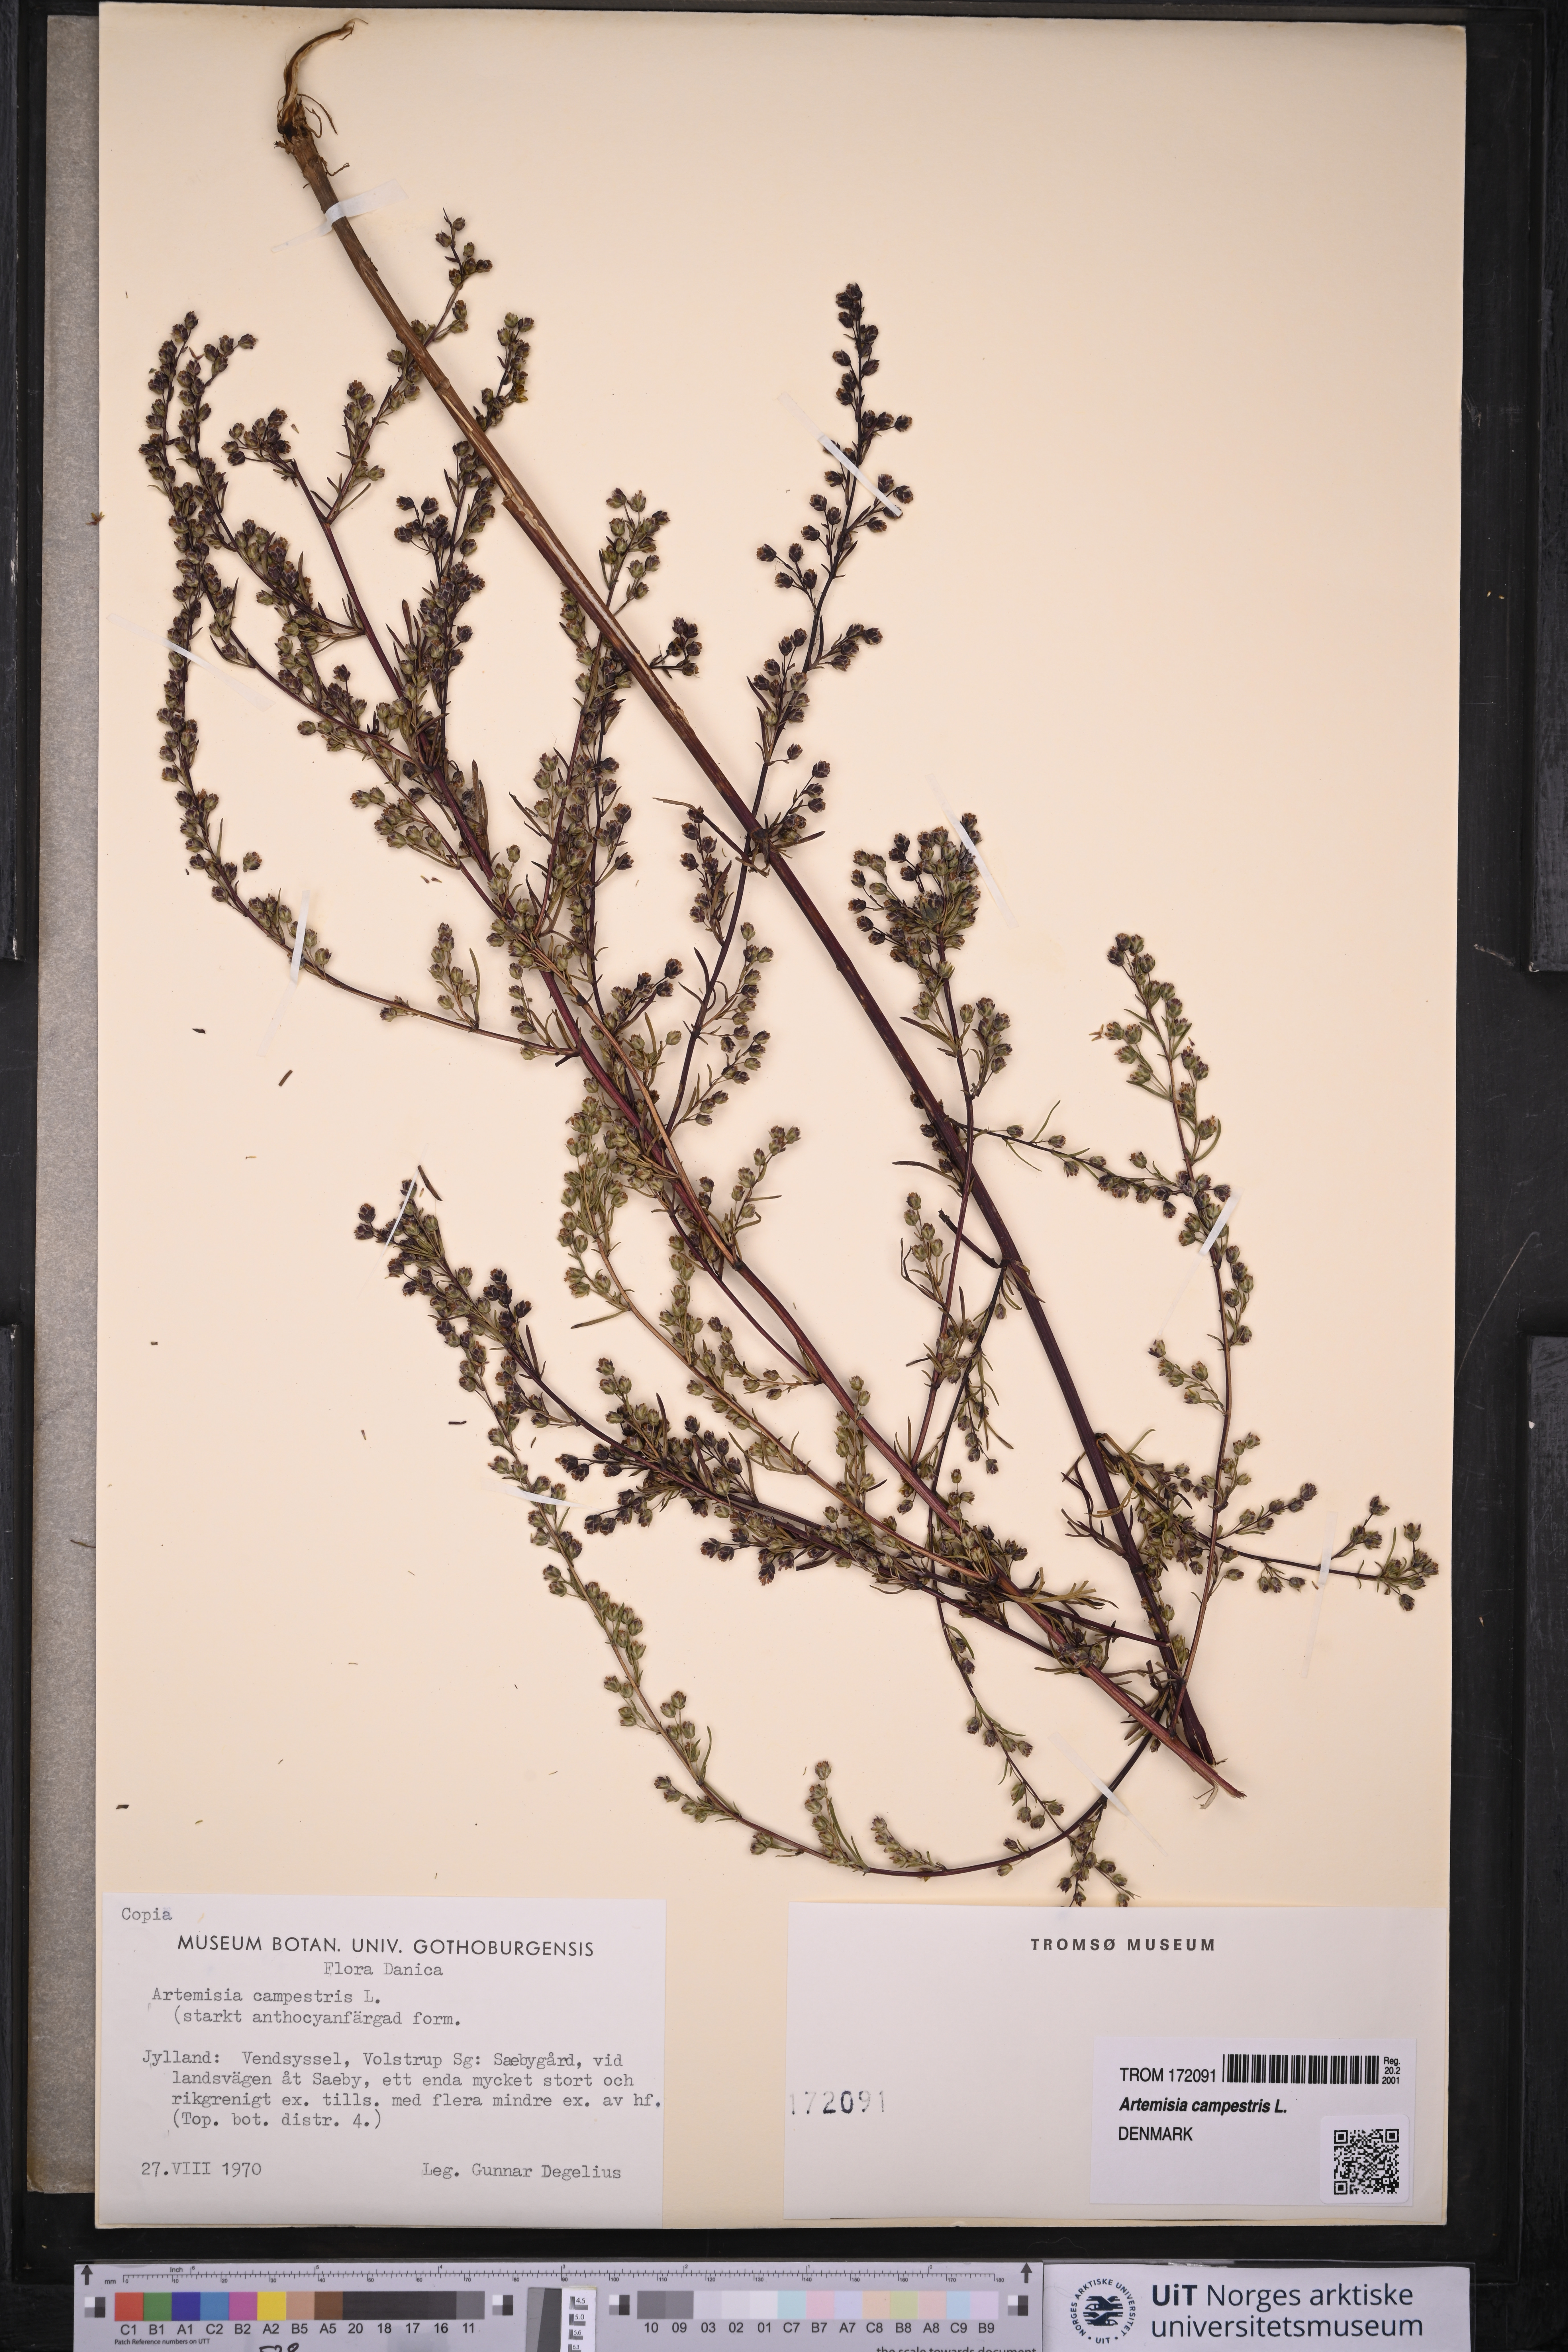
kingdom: Plantae
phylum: Tracheophyta
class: Magnoliopsida
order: Asterales
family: Asteraceae
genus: Artemisia
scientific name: Artemisia campestris
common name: Field wormwood
